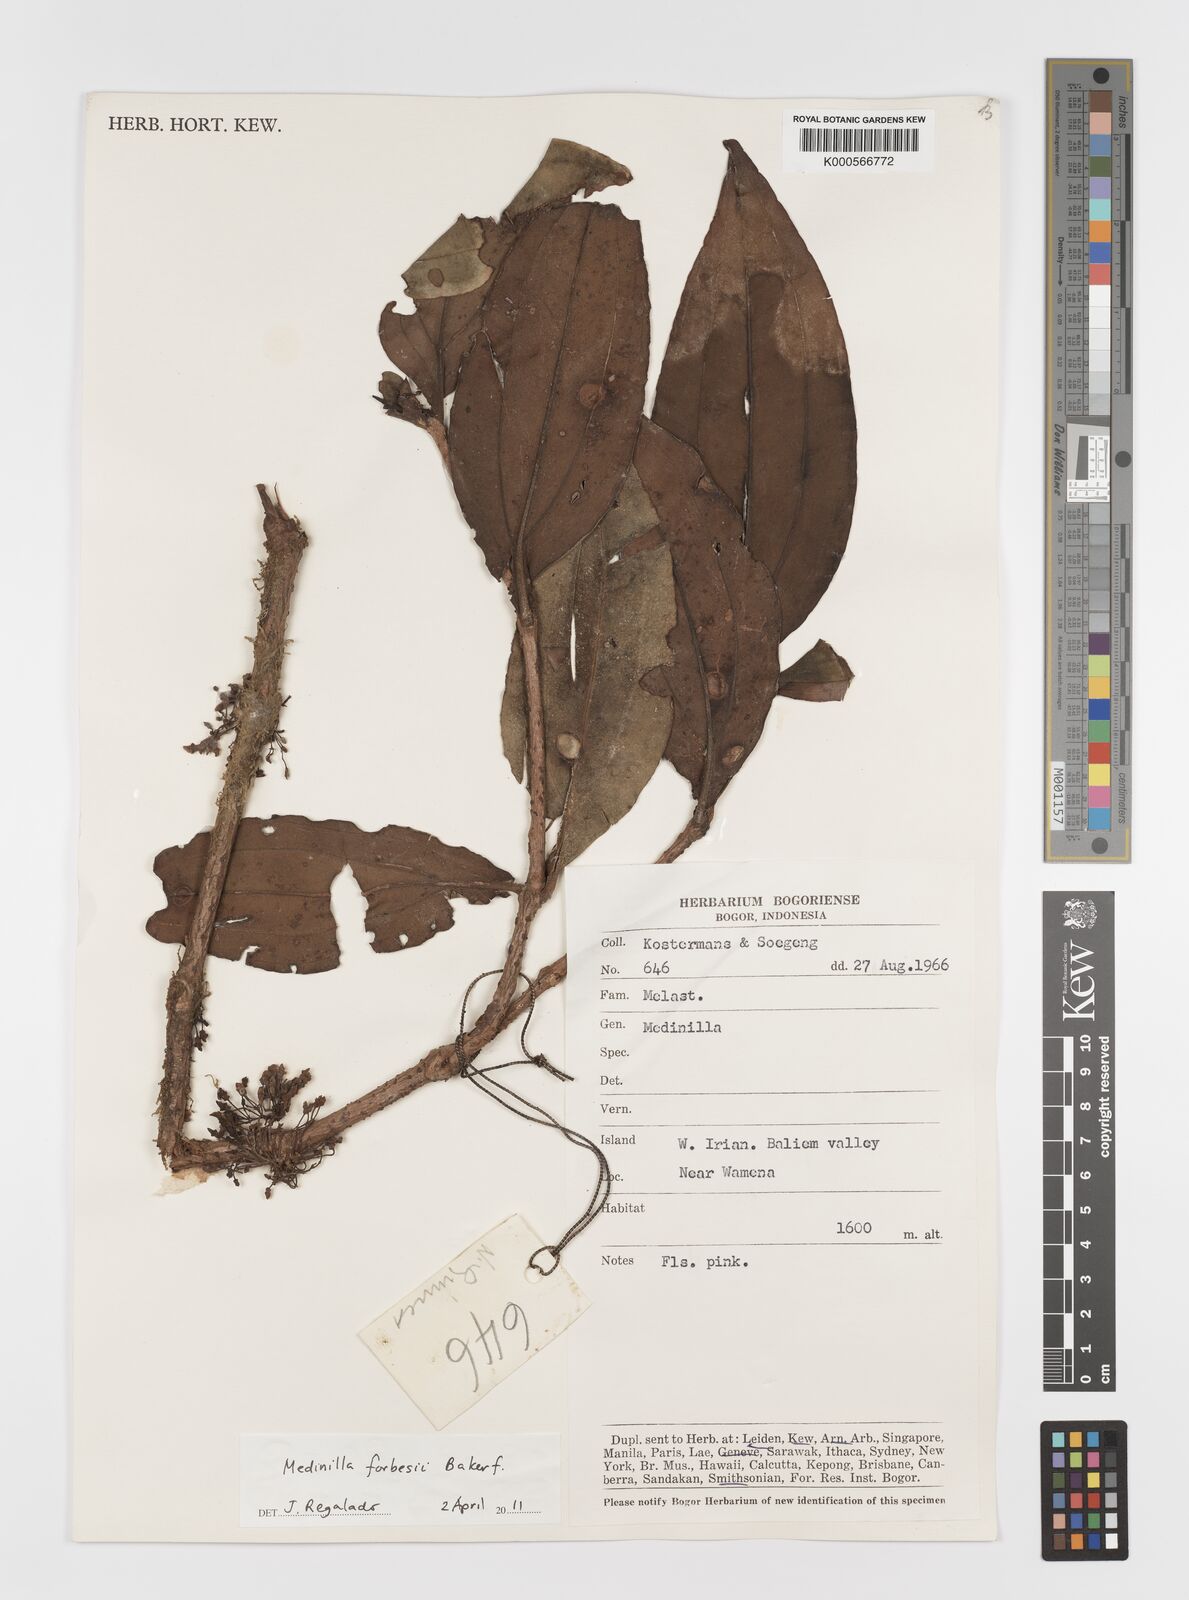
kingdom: Plantae
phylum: Tracheophyta
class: Magnoliopsida
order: Myrtales
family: Melastomataceae
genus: Medinilla
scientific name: Medinilla forbesii
